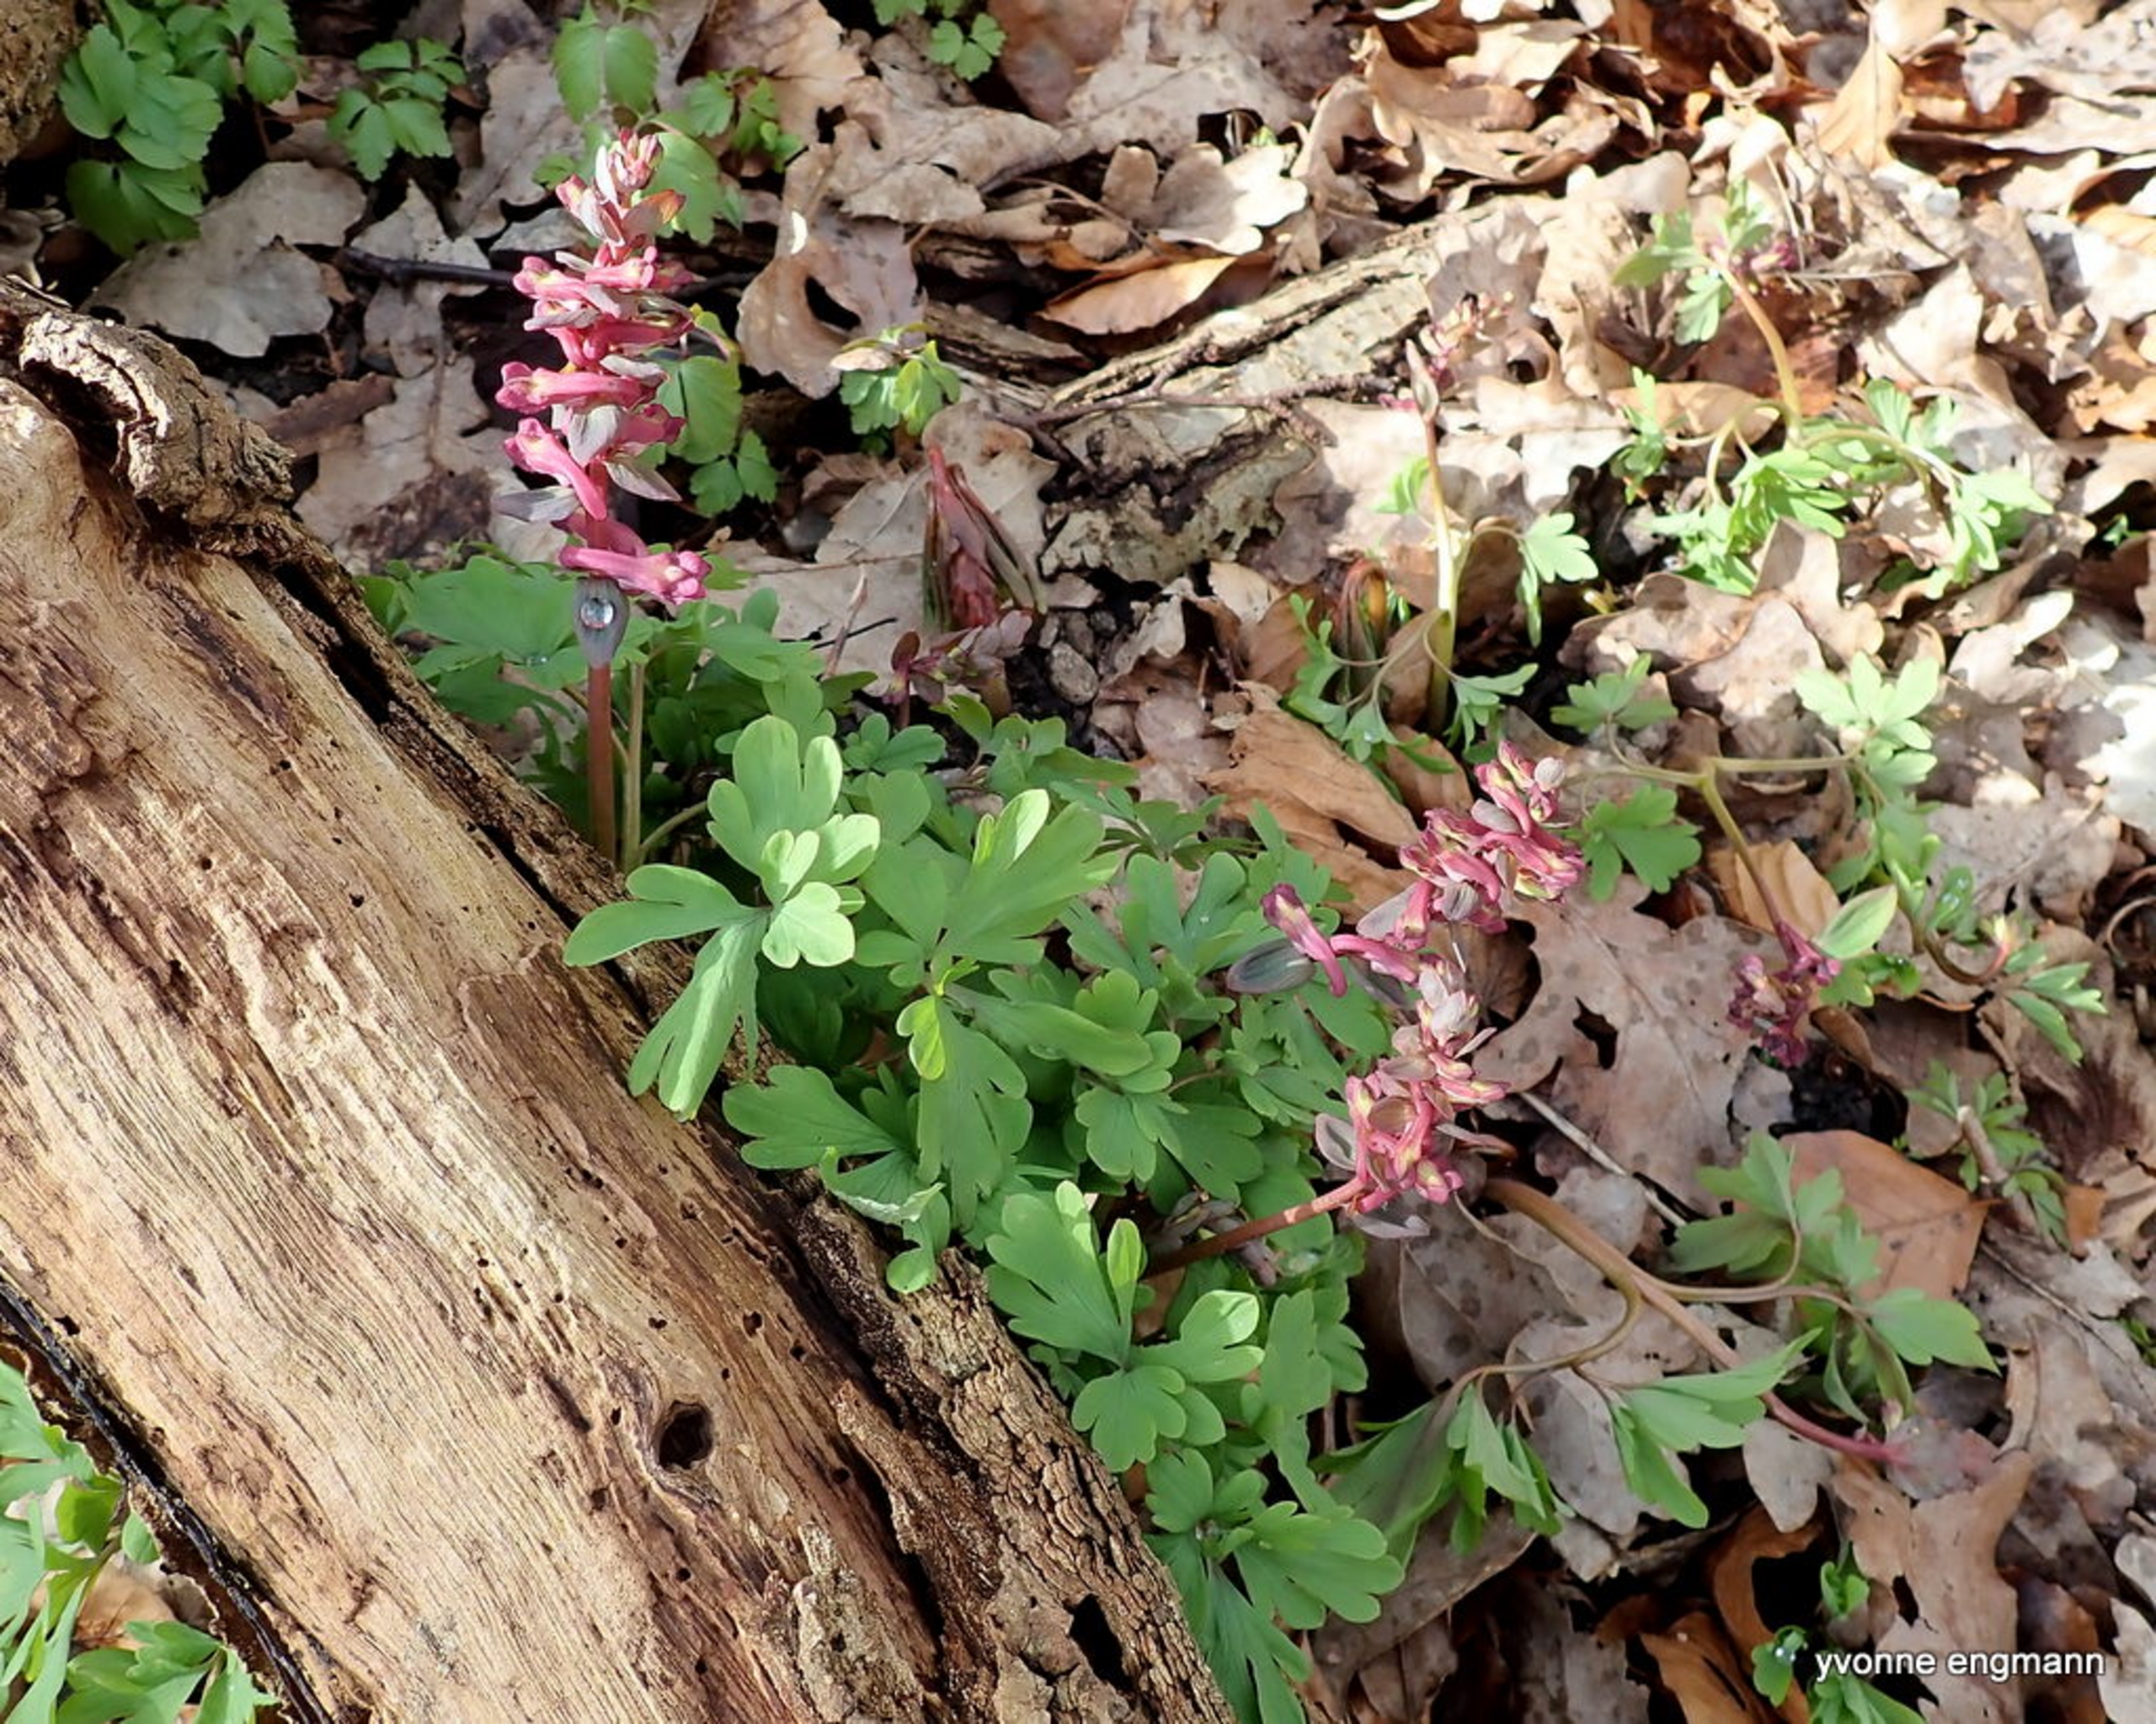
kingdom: Plantae
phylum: Tracheophyta
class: Magnoliopsida
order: Ranunculales
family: Papaveraceae
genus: Corydalis
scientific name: Corydalis cava
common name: Hulrodet lærkespore
